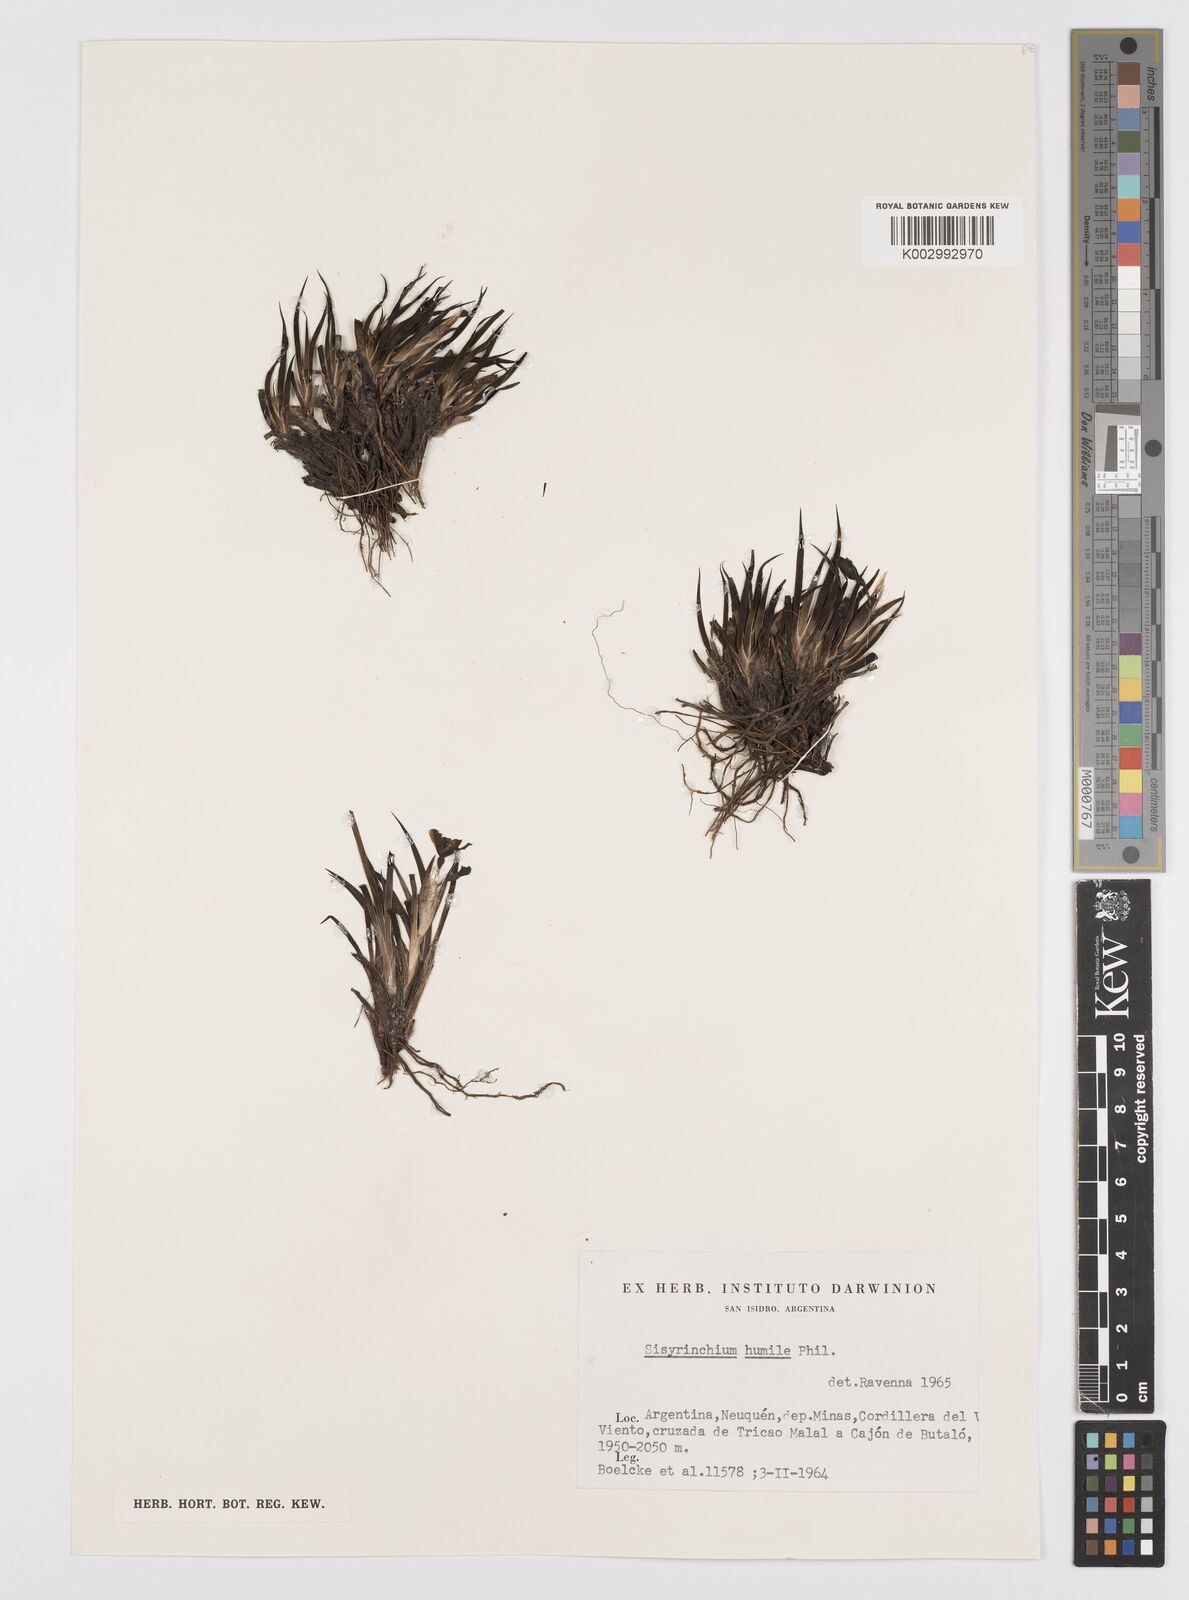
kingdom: Plantae
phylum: Tracheophyta
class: Liliopsida
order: Asparagales
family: Iridaceae
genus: Sisyrinchium
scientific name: Sisyrinchium arenarium
